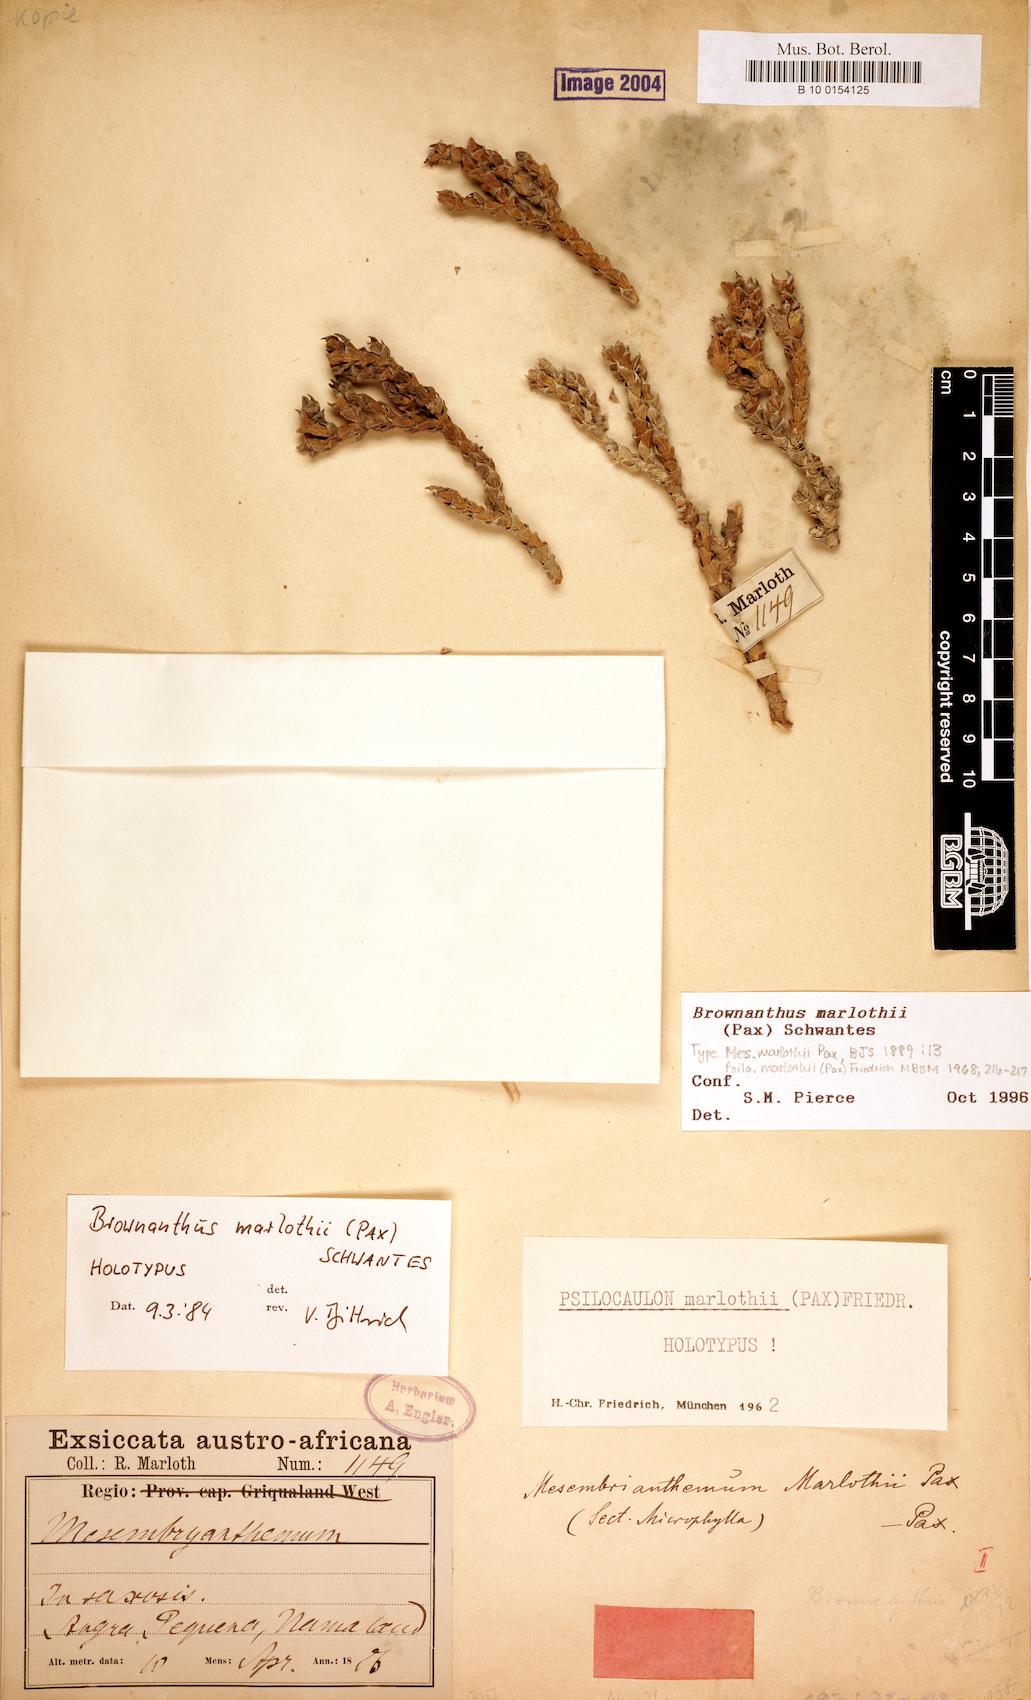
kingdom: Plantae
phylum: Tracheophyta
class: Magnoliopsida
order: Caryophyllales
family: Aizoaceae
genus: Mesembryanthemum
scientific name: Mesembryanthemum marlothii
